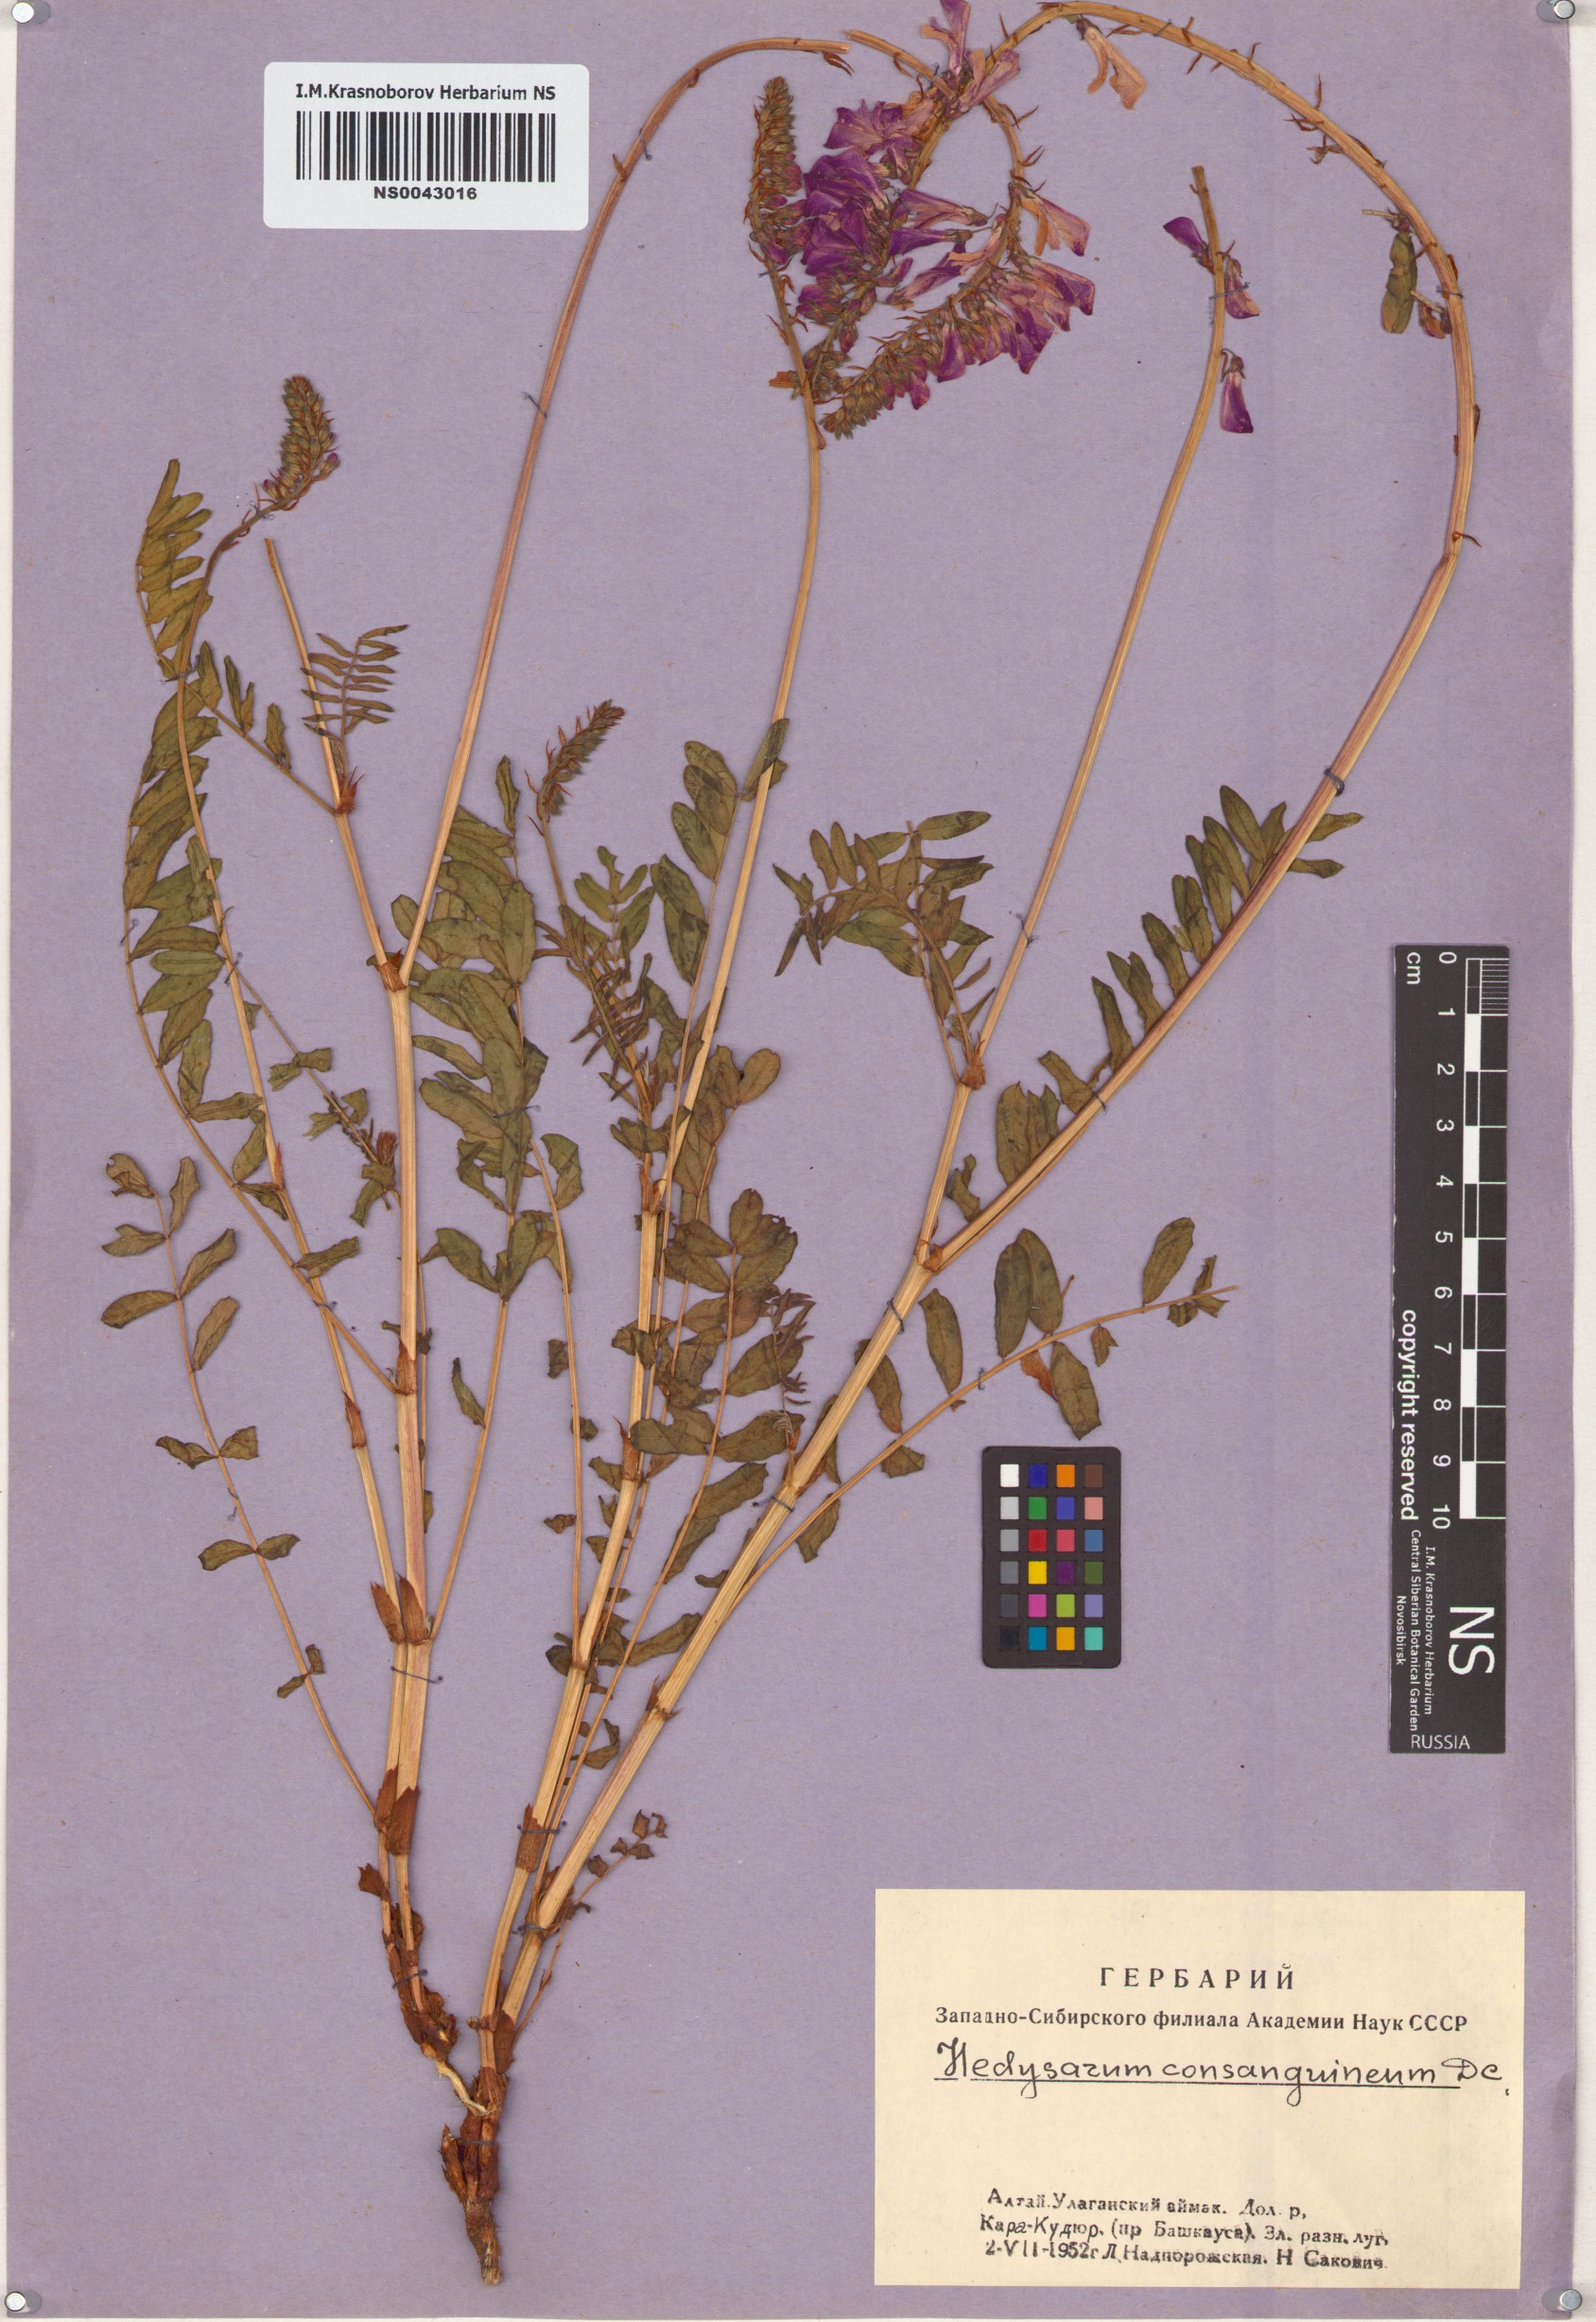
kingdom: Plantae
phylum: Tracheophyta
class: Magnoliopsida
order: Fabales
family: Fabaceae
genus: Hedysarum
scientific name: Hedysarum consanguineum
